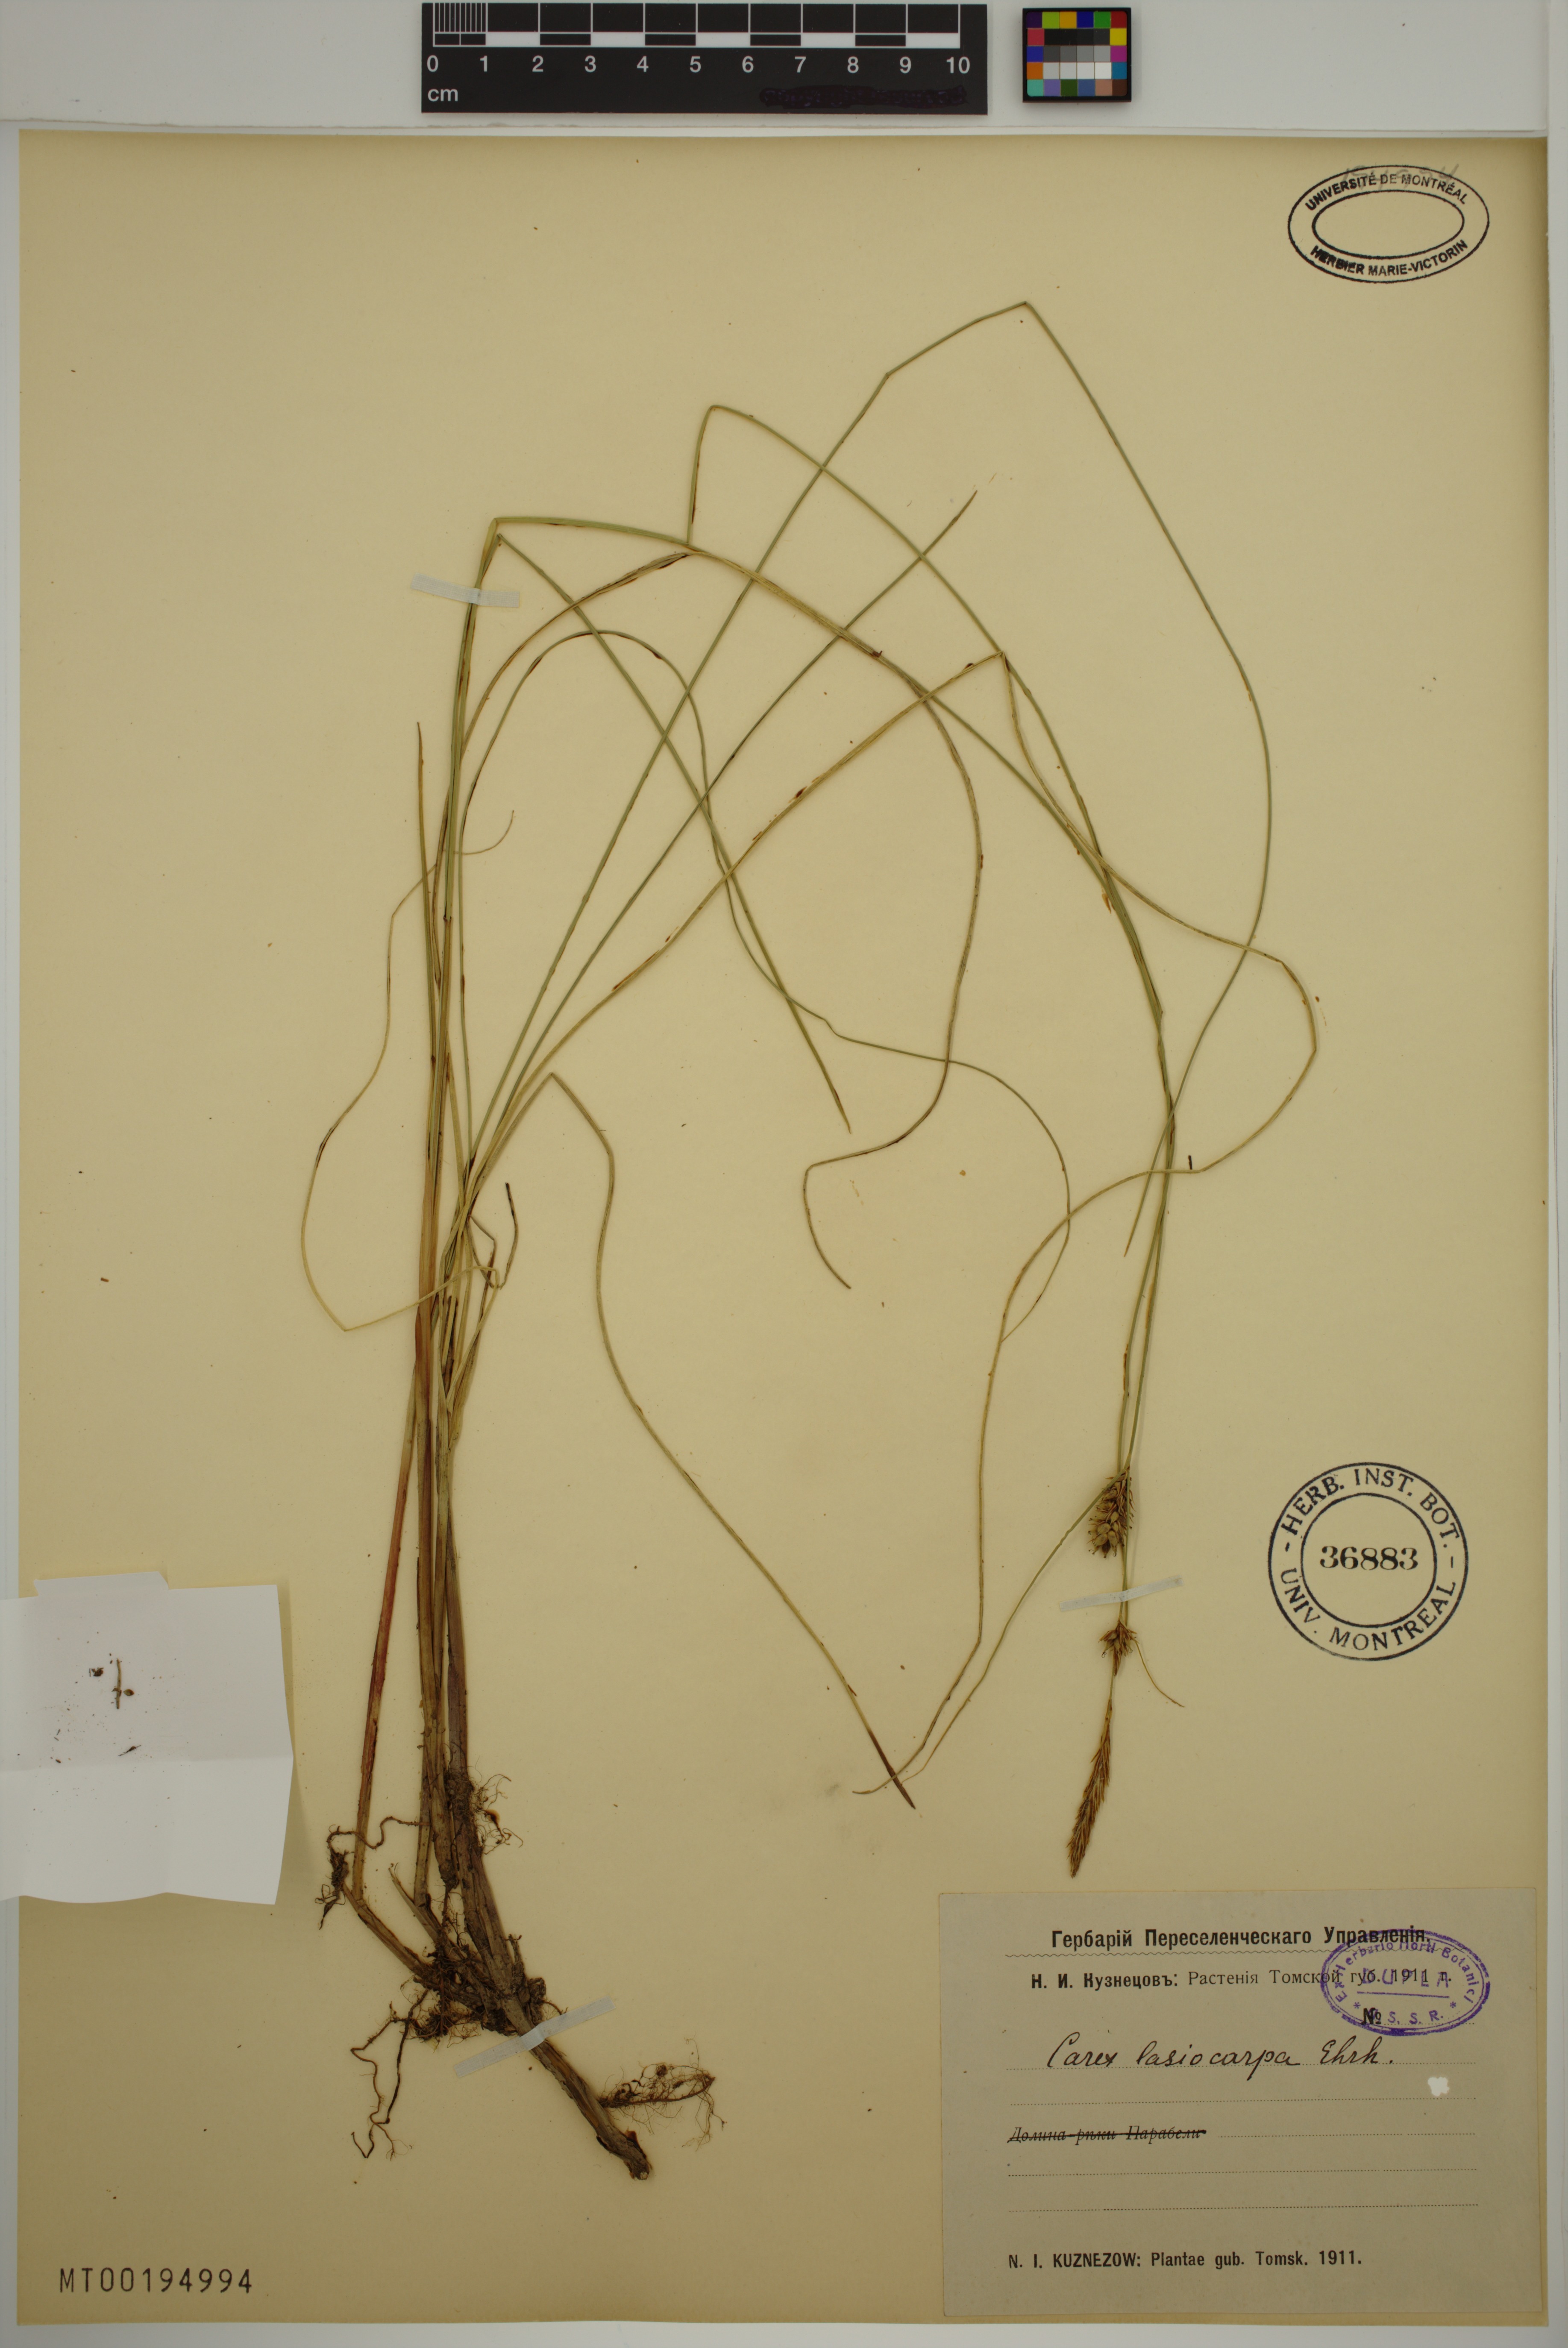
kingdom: Plantae
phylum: Tracheophyta
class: Liliopsida
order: Poales
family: Cyperaceae
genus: Carex
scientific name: Carex lasiocarpa
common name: Slender sedge
